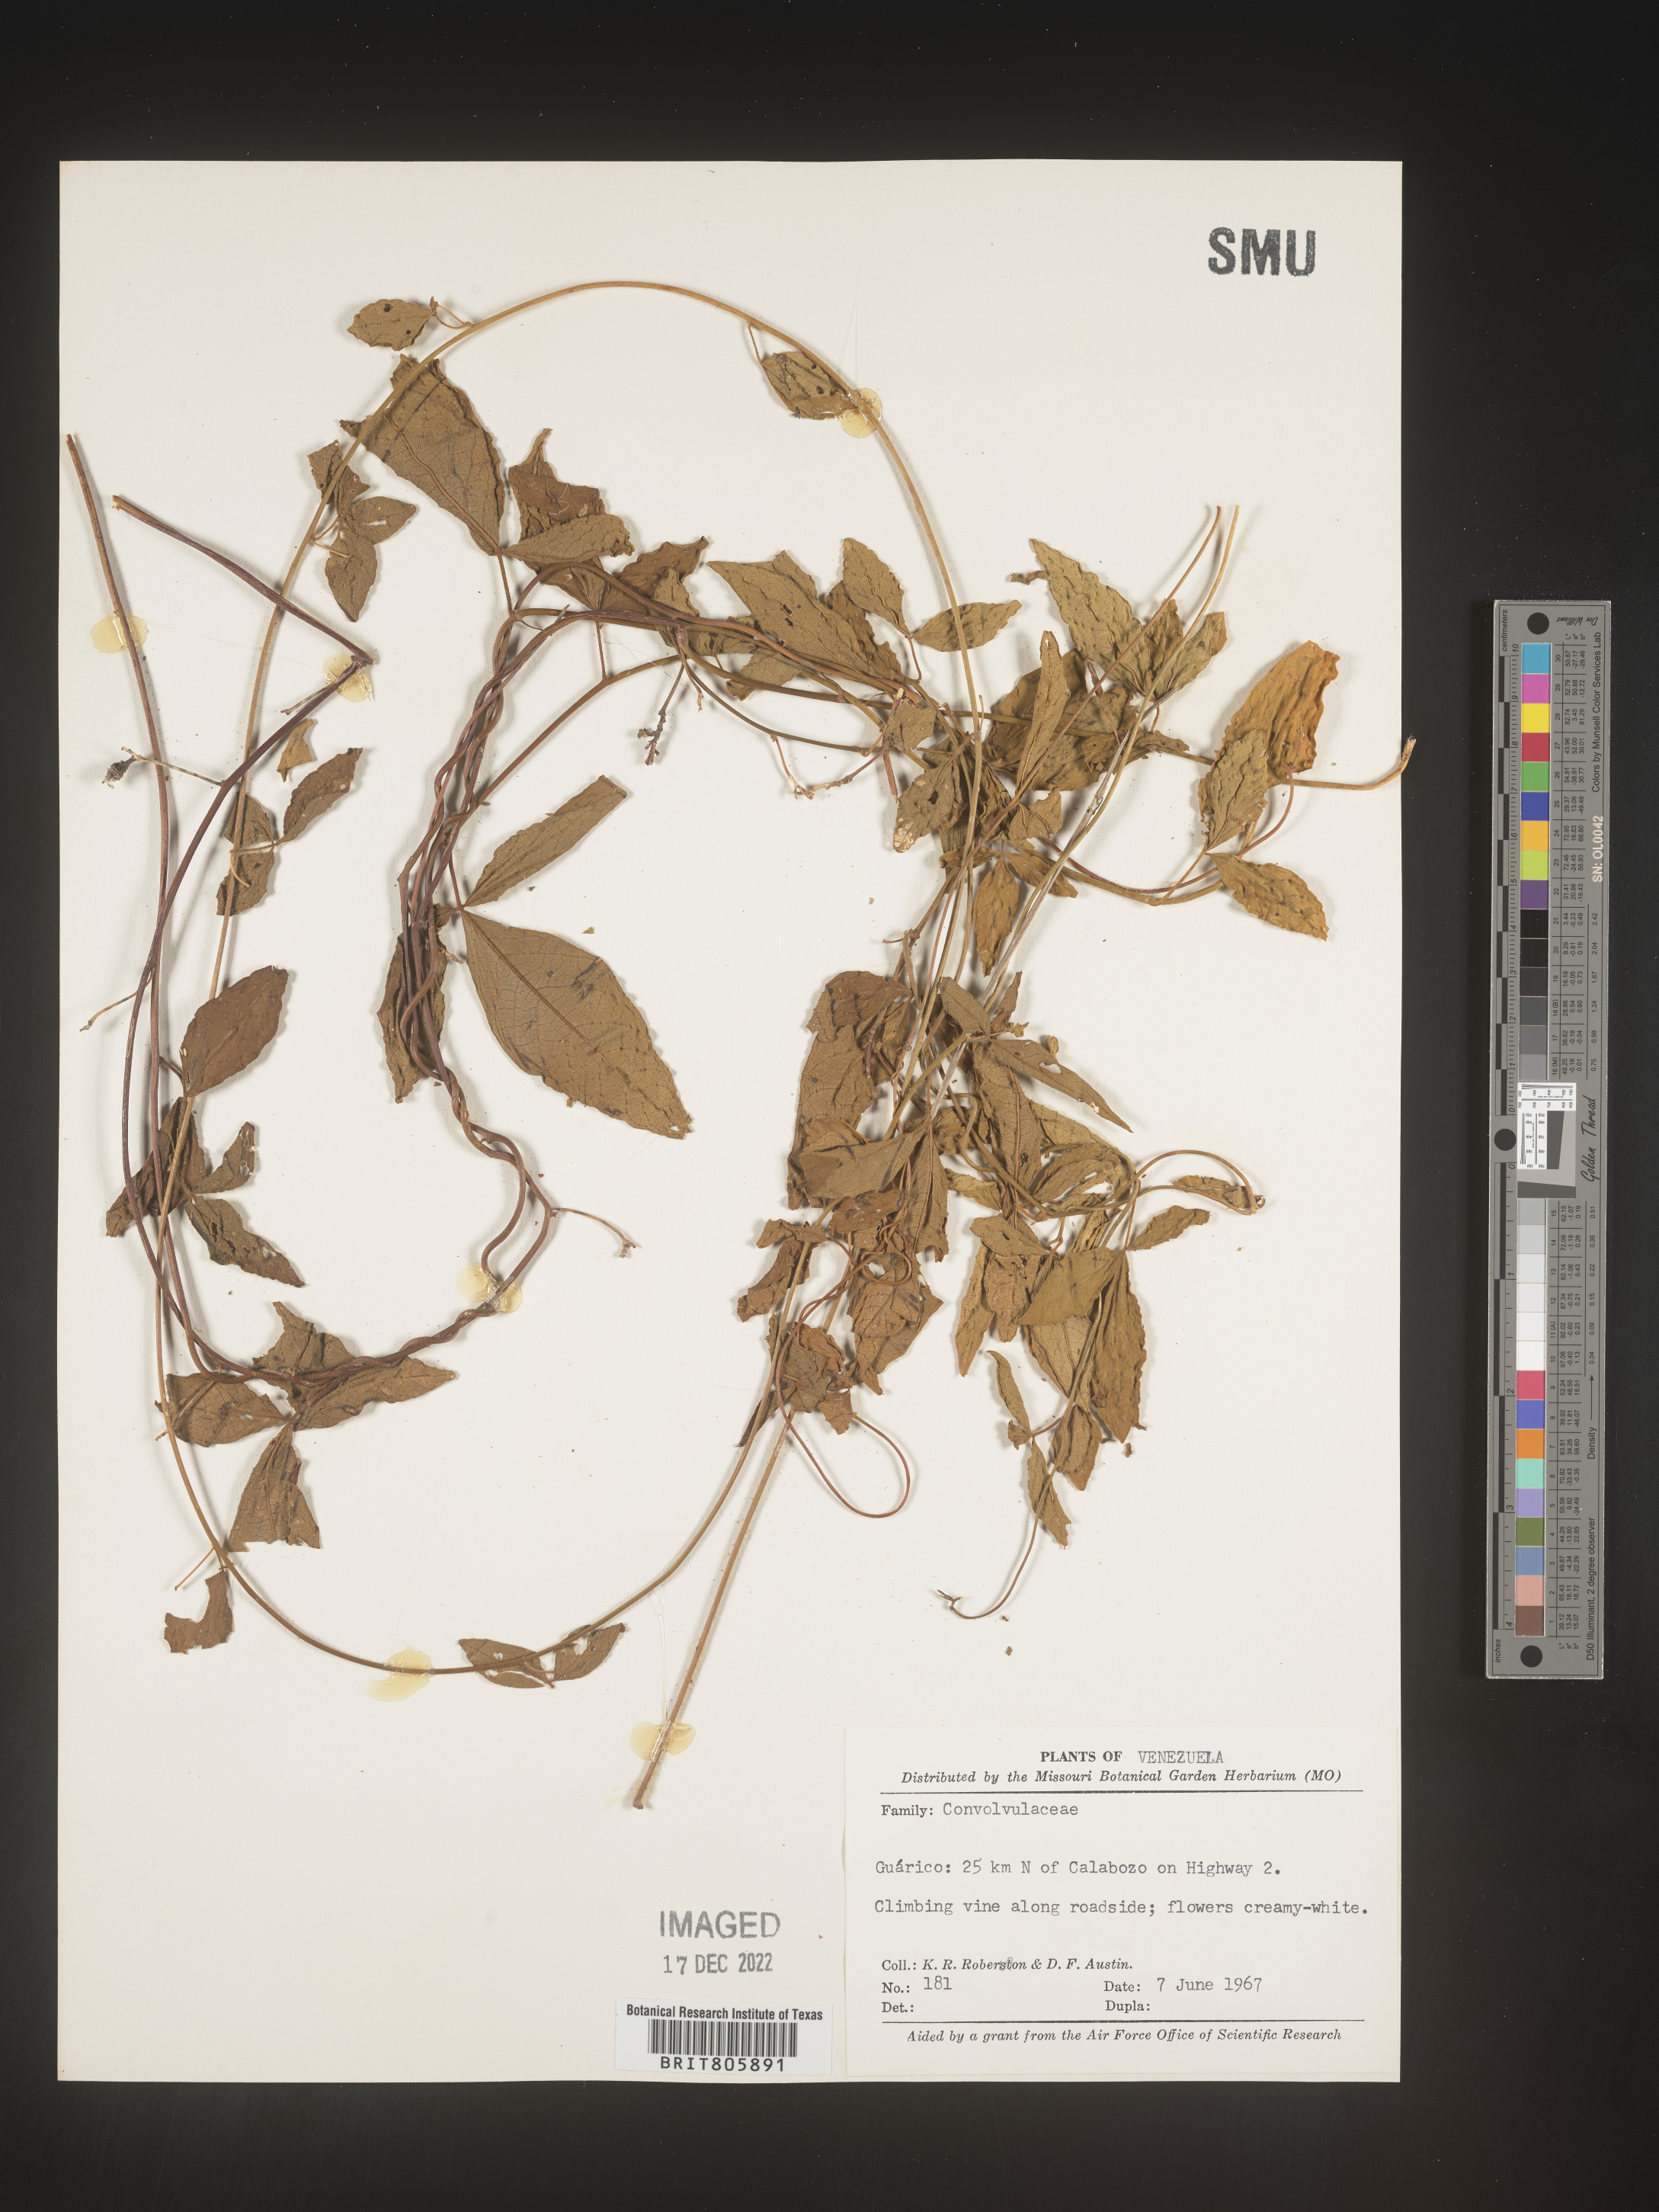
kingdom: Animalia
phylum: Mollusca
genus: Turbina
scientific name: Turbina
